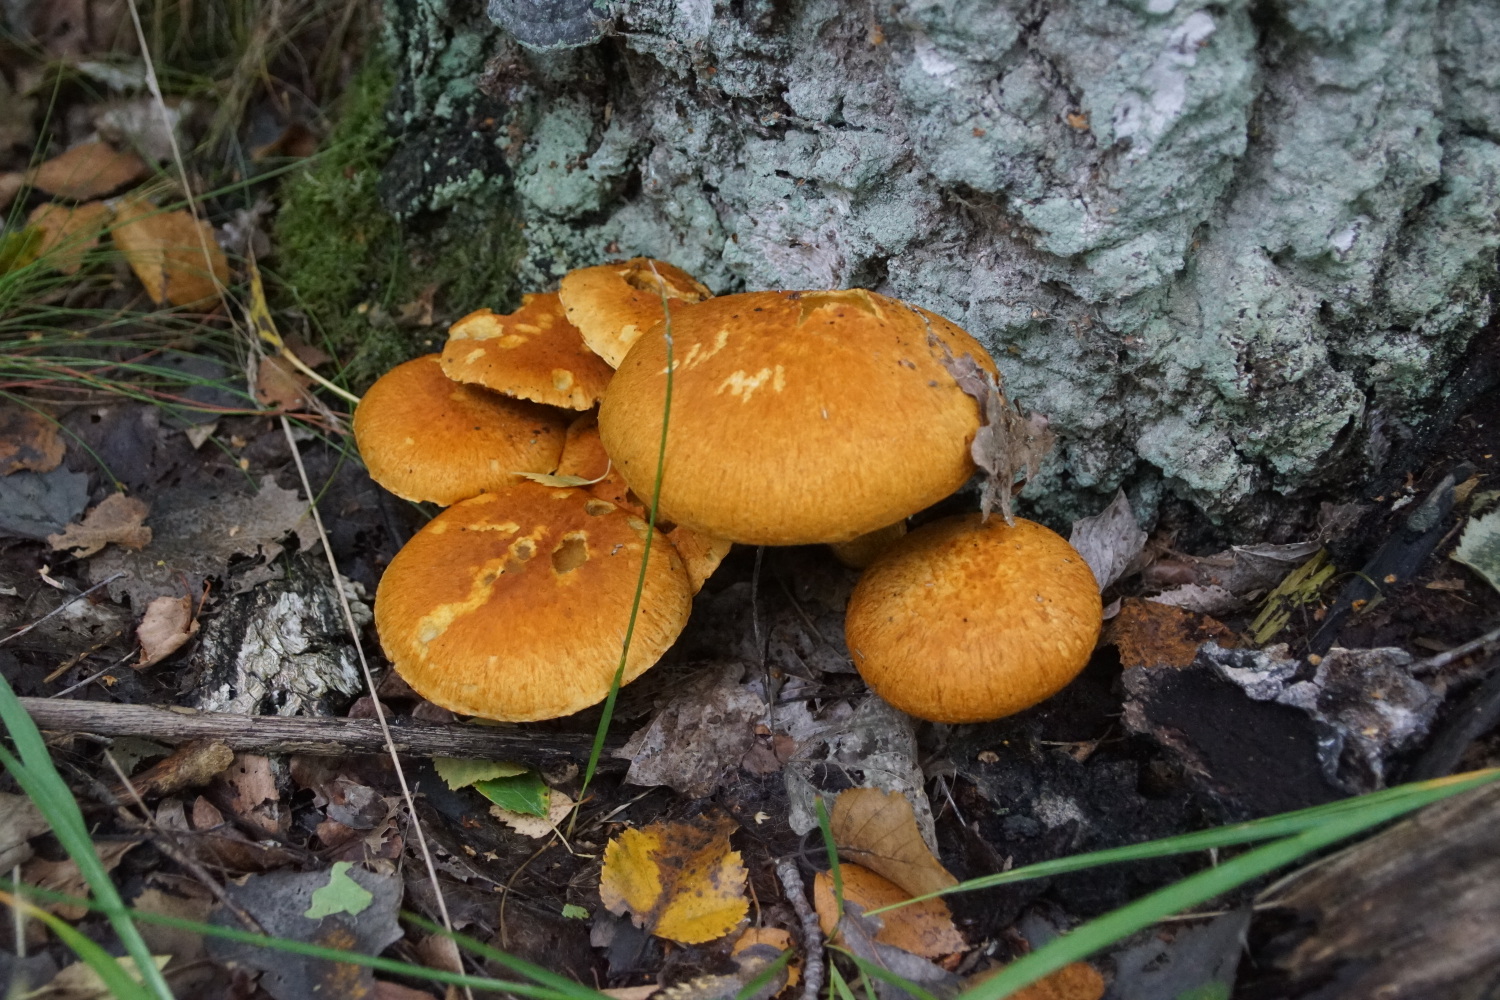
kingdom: Fungi
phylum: Basidiomycota
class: Agaricomycetes
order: Agaricales
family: Hymenogastraceae
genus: Gymnopilus
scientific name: Gymnopilus spectabilis
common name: fibret flammehat
